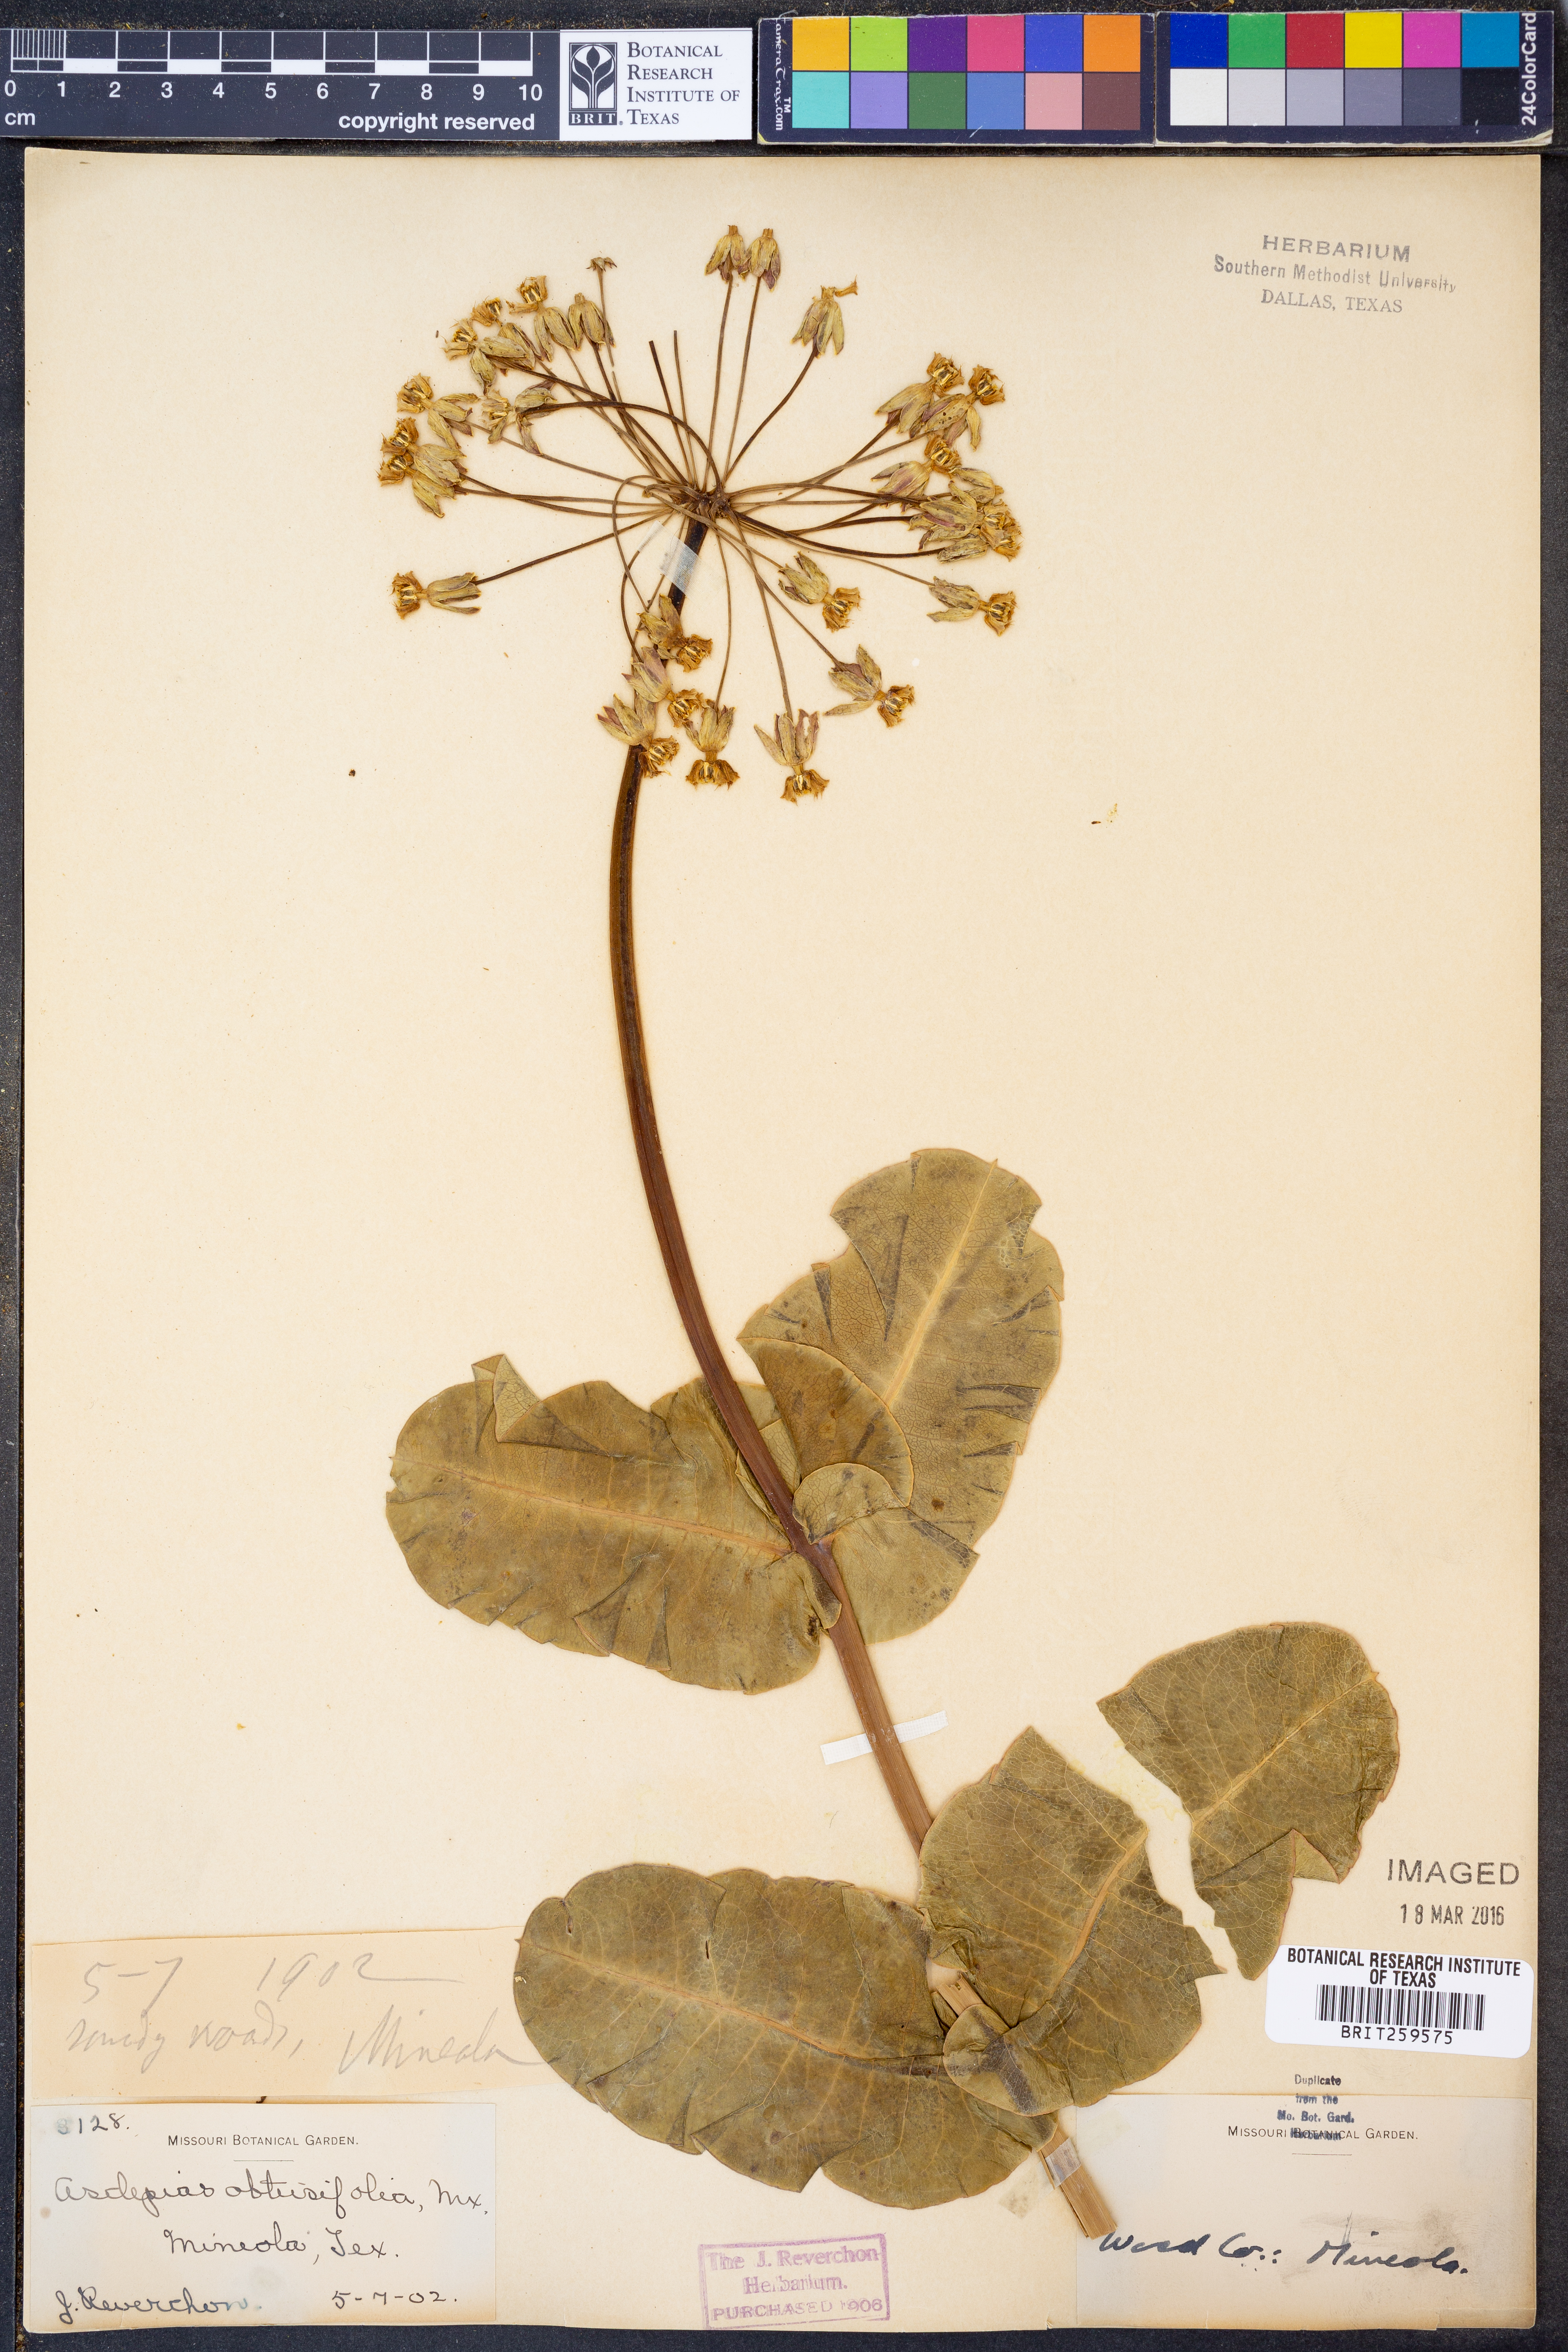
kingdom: Plantae
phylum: Tracheophyta
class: Magnoliopsida
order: Gentianales
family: Apocynaceae
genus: Asclepias
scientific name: Asclepias
